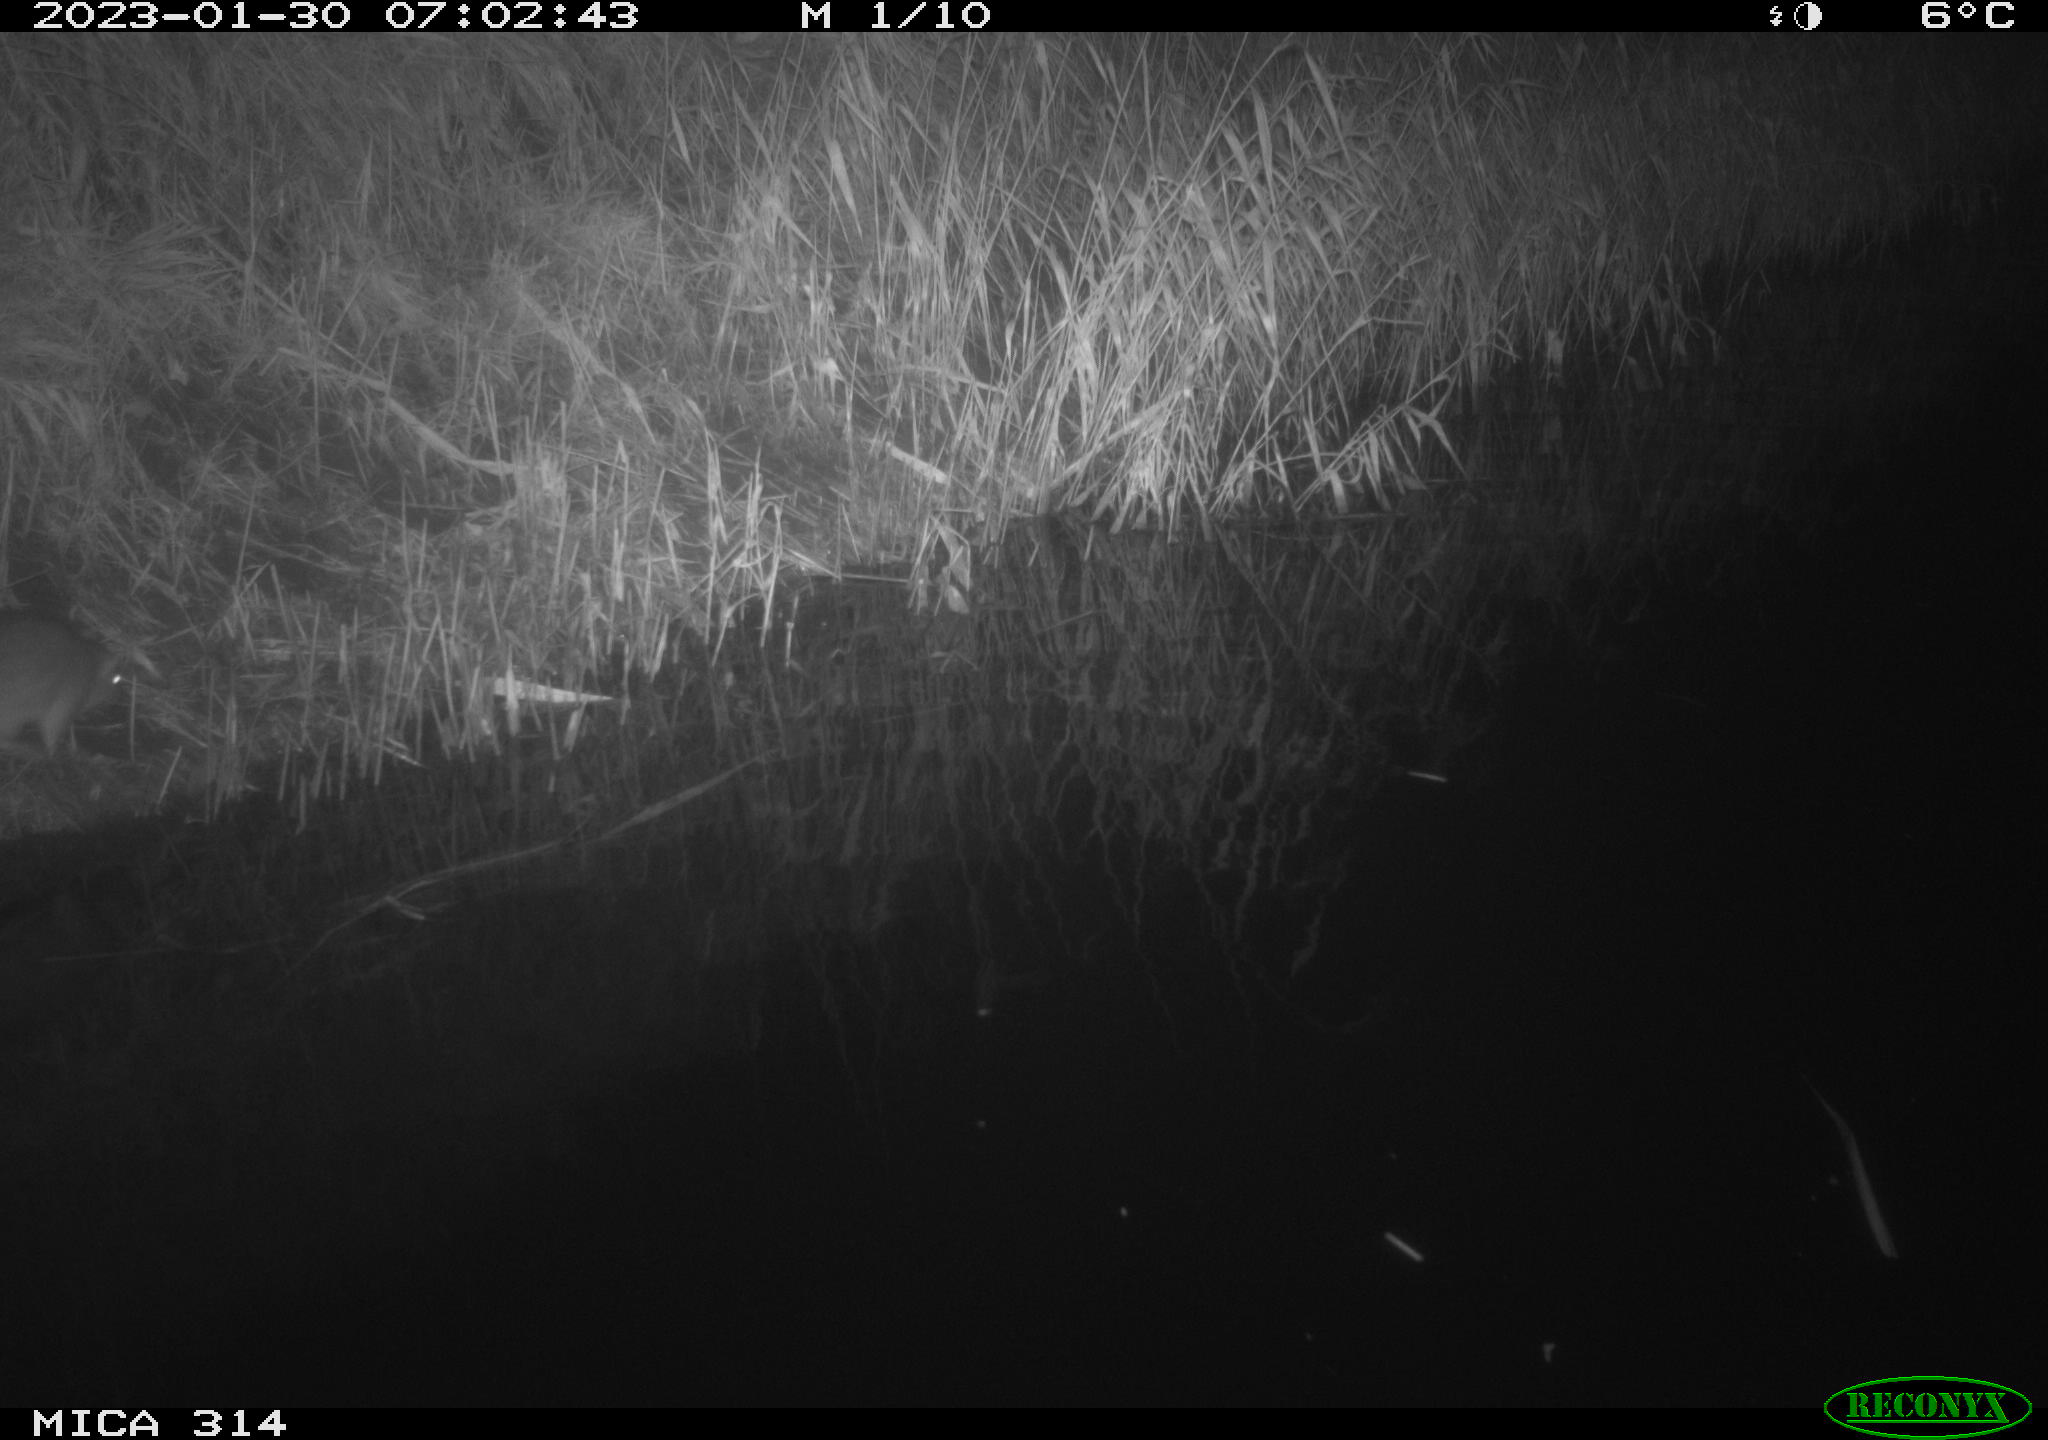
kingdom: Animalia
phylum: Chordata
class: Mammalia
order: Rodentia
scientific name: Rodentia
